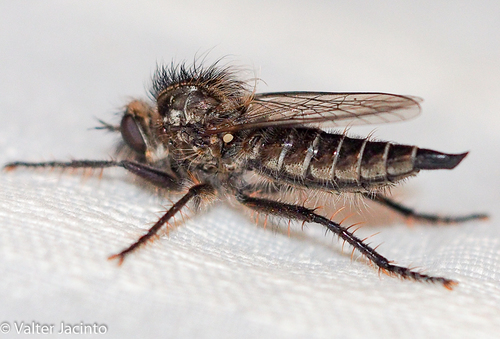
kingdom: Animalia
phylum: Arthropoda
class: Insecta
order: Diptera
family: Asilidae
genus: Dysmachus
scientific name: Dysmachus cristatus
